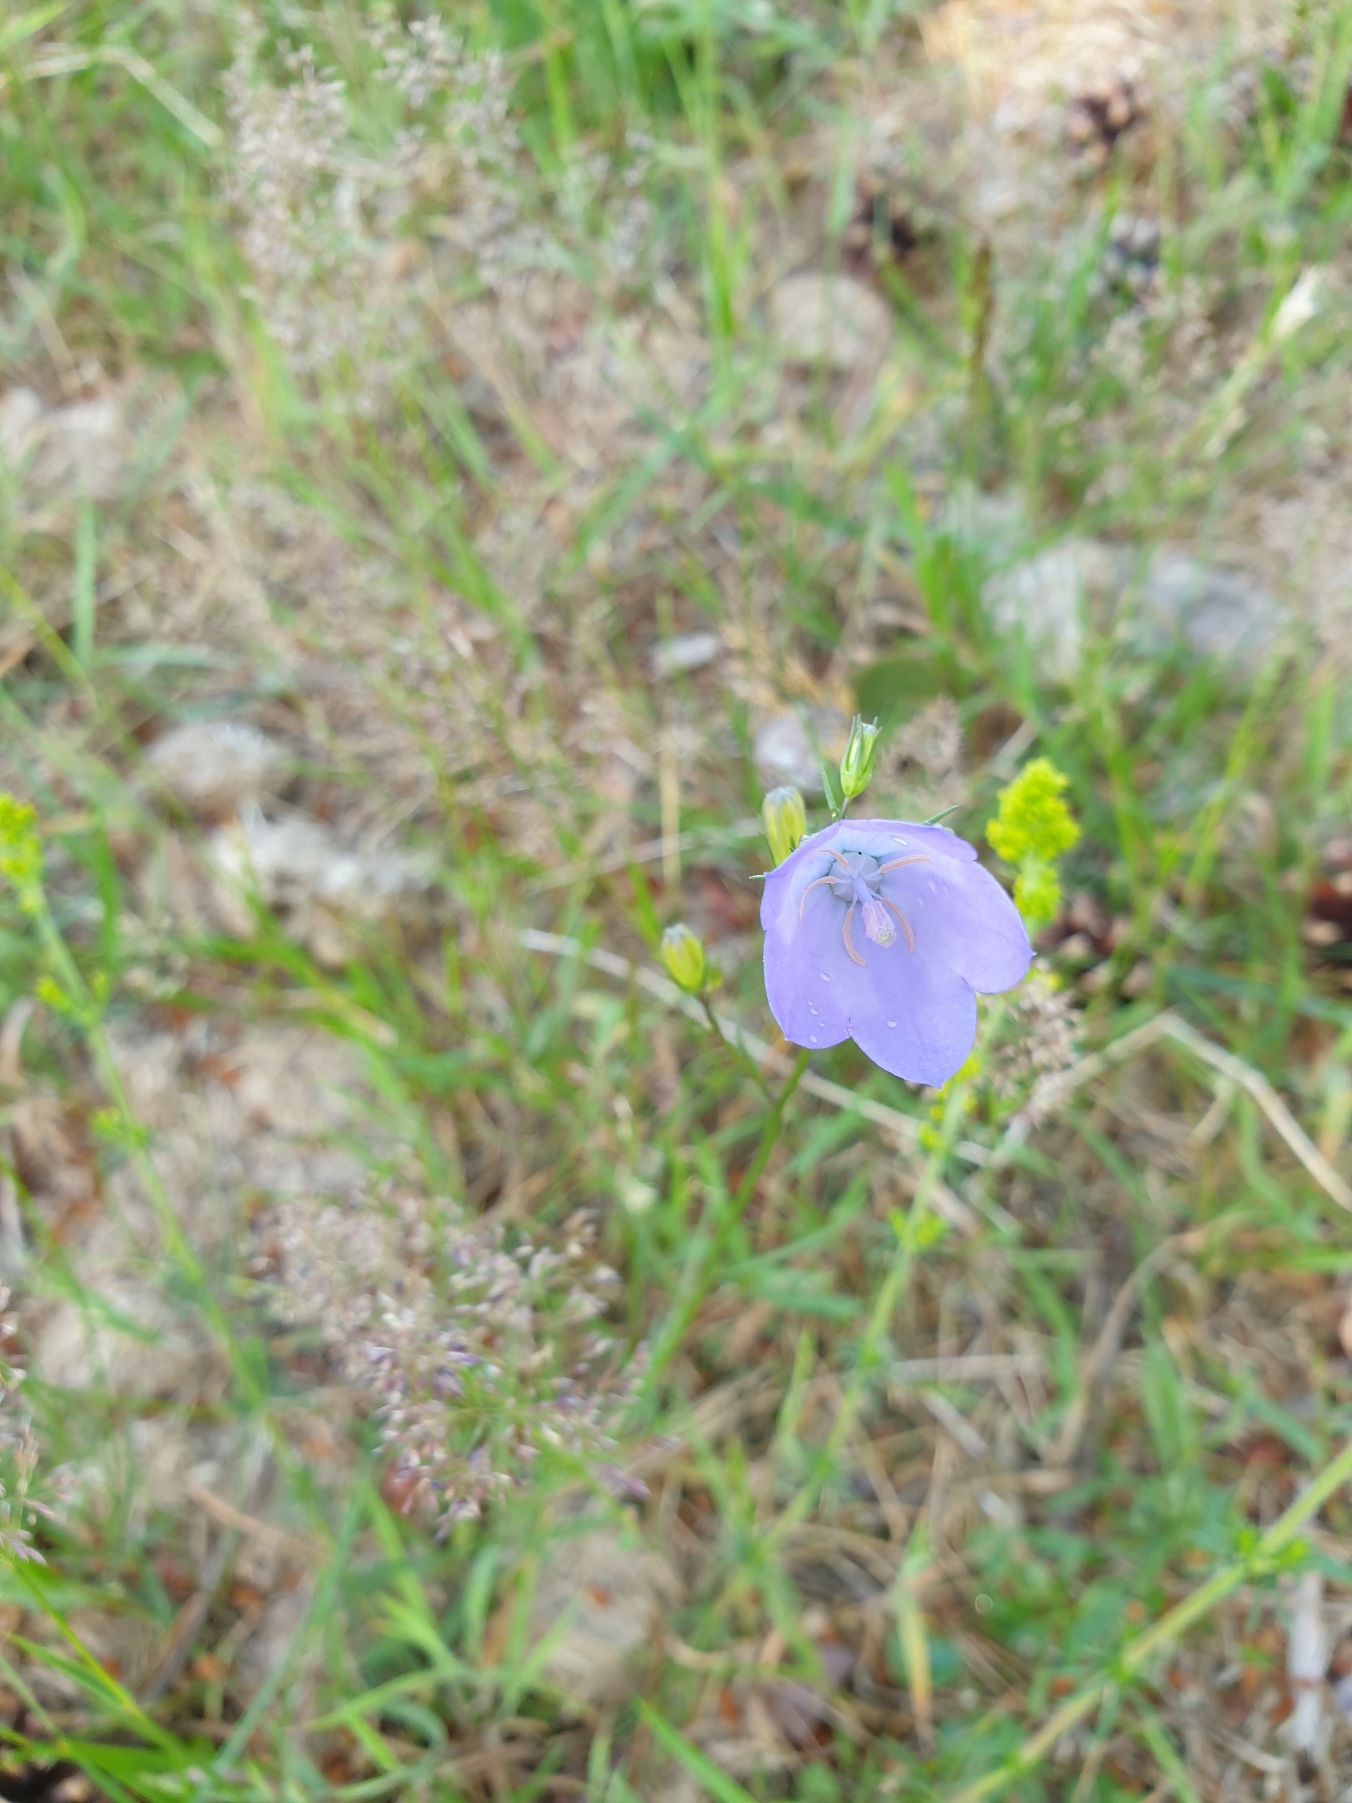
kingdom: Plantae
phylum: Tracheophyta
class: Magnoliopsida
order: Asterales
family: Campanulaceae
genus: Campanula
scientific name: Campanula rotundifolia
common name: Liden klokke
